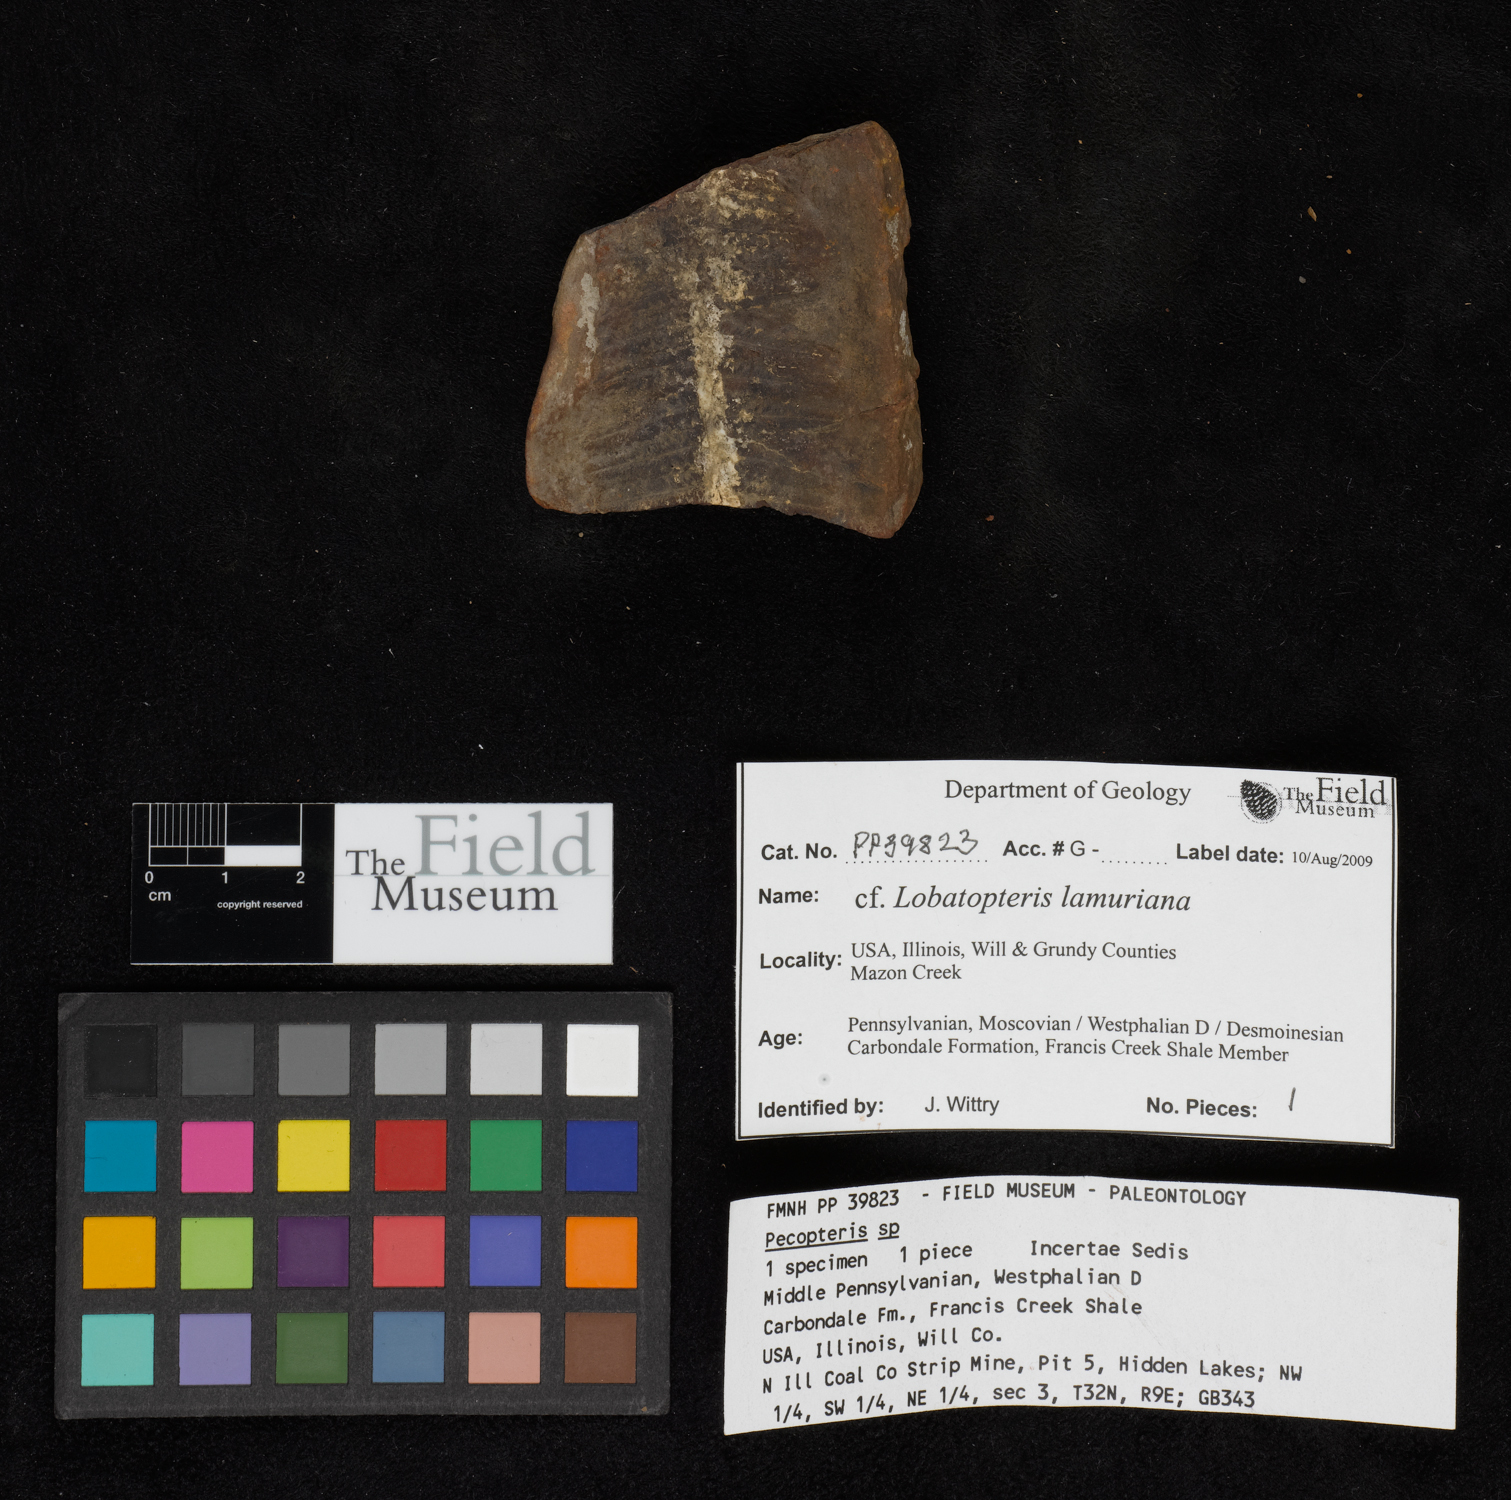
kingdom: Plantae
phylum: Tracheophyta
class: Polypodiopsida
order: Marattiales
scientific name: Marattiales
